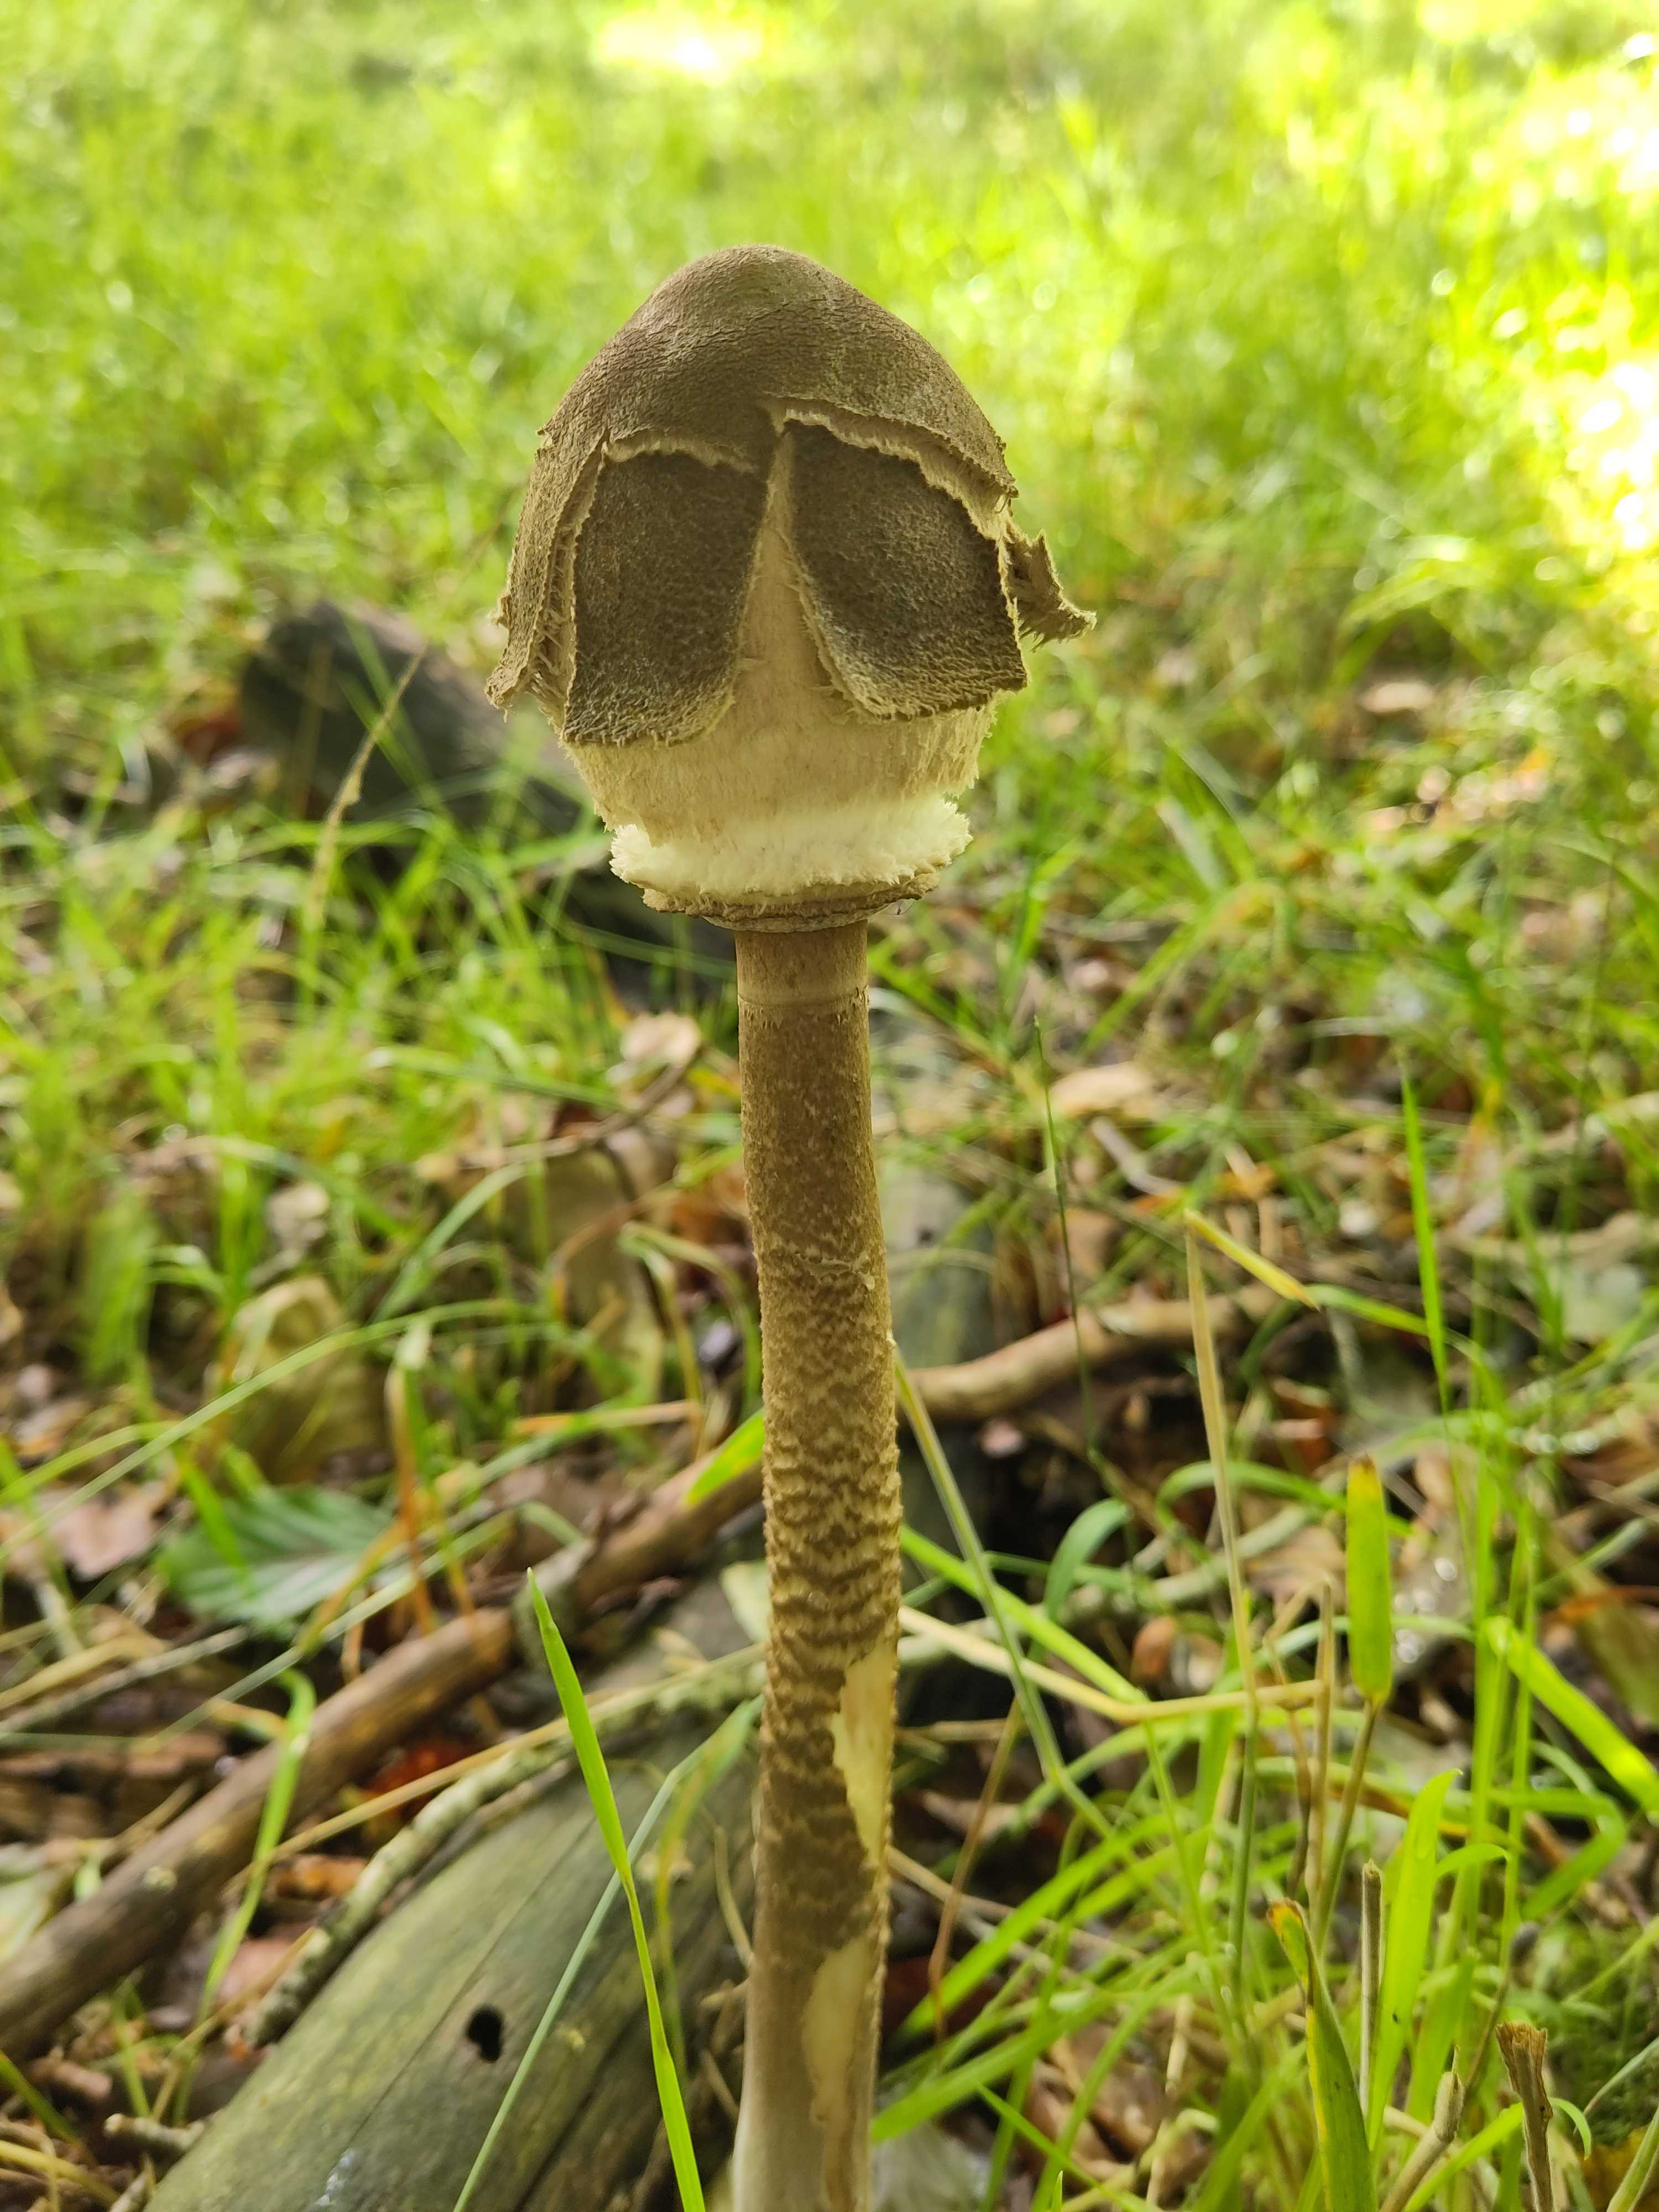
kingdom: Fungi
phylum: Basidiomycota
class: Agaricomycetes
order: Agaricales
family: Agaricaceae
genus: Macrolepiota
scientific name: Macrolepiota
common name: kæmpeparasolhat
